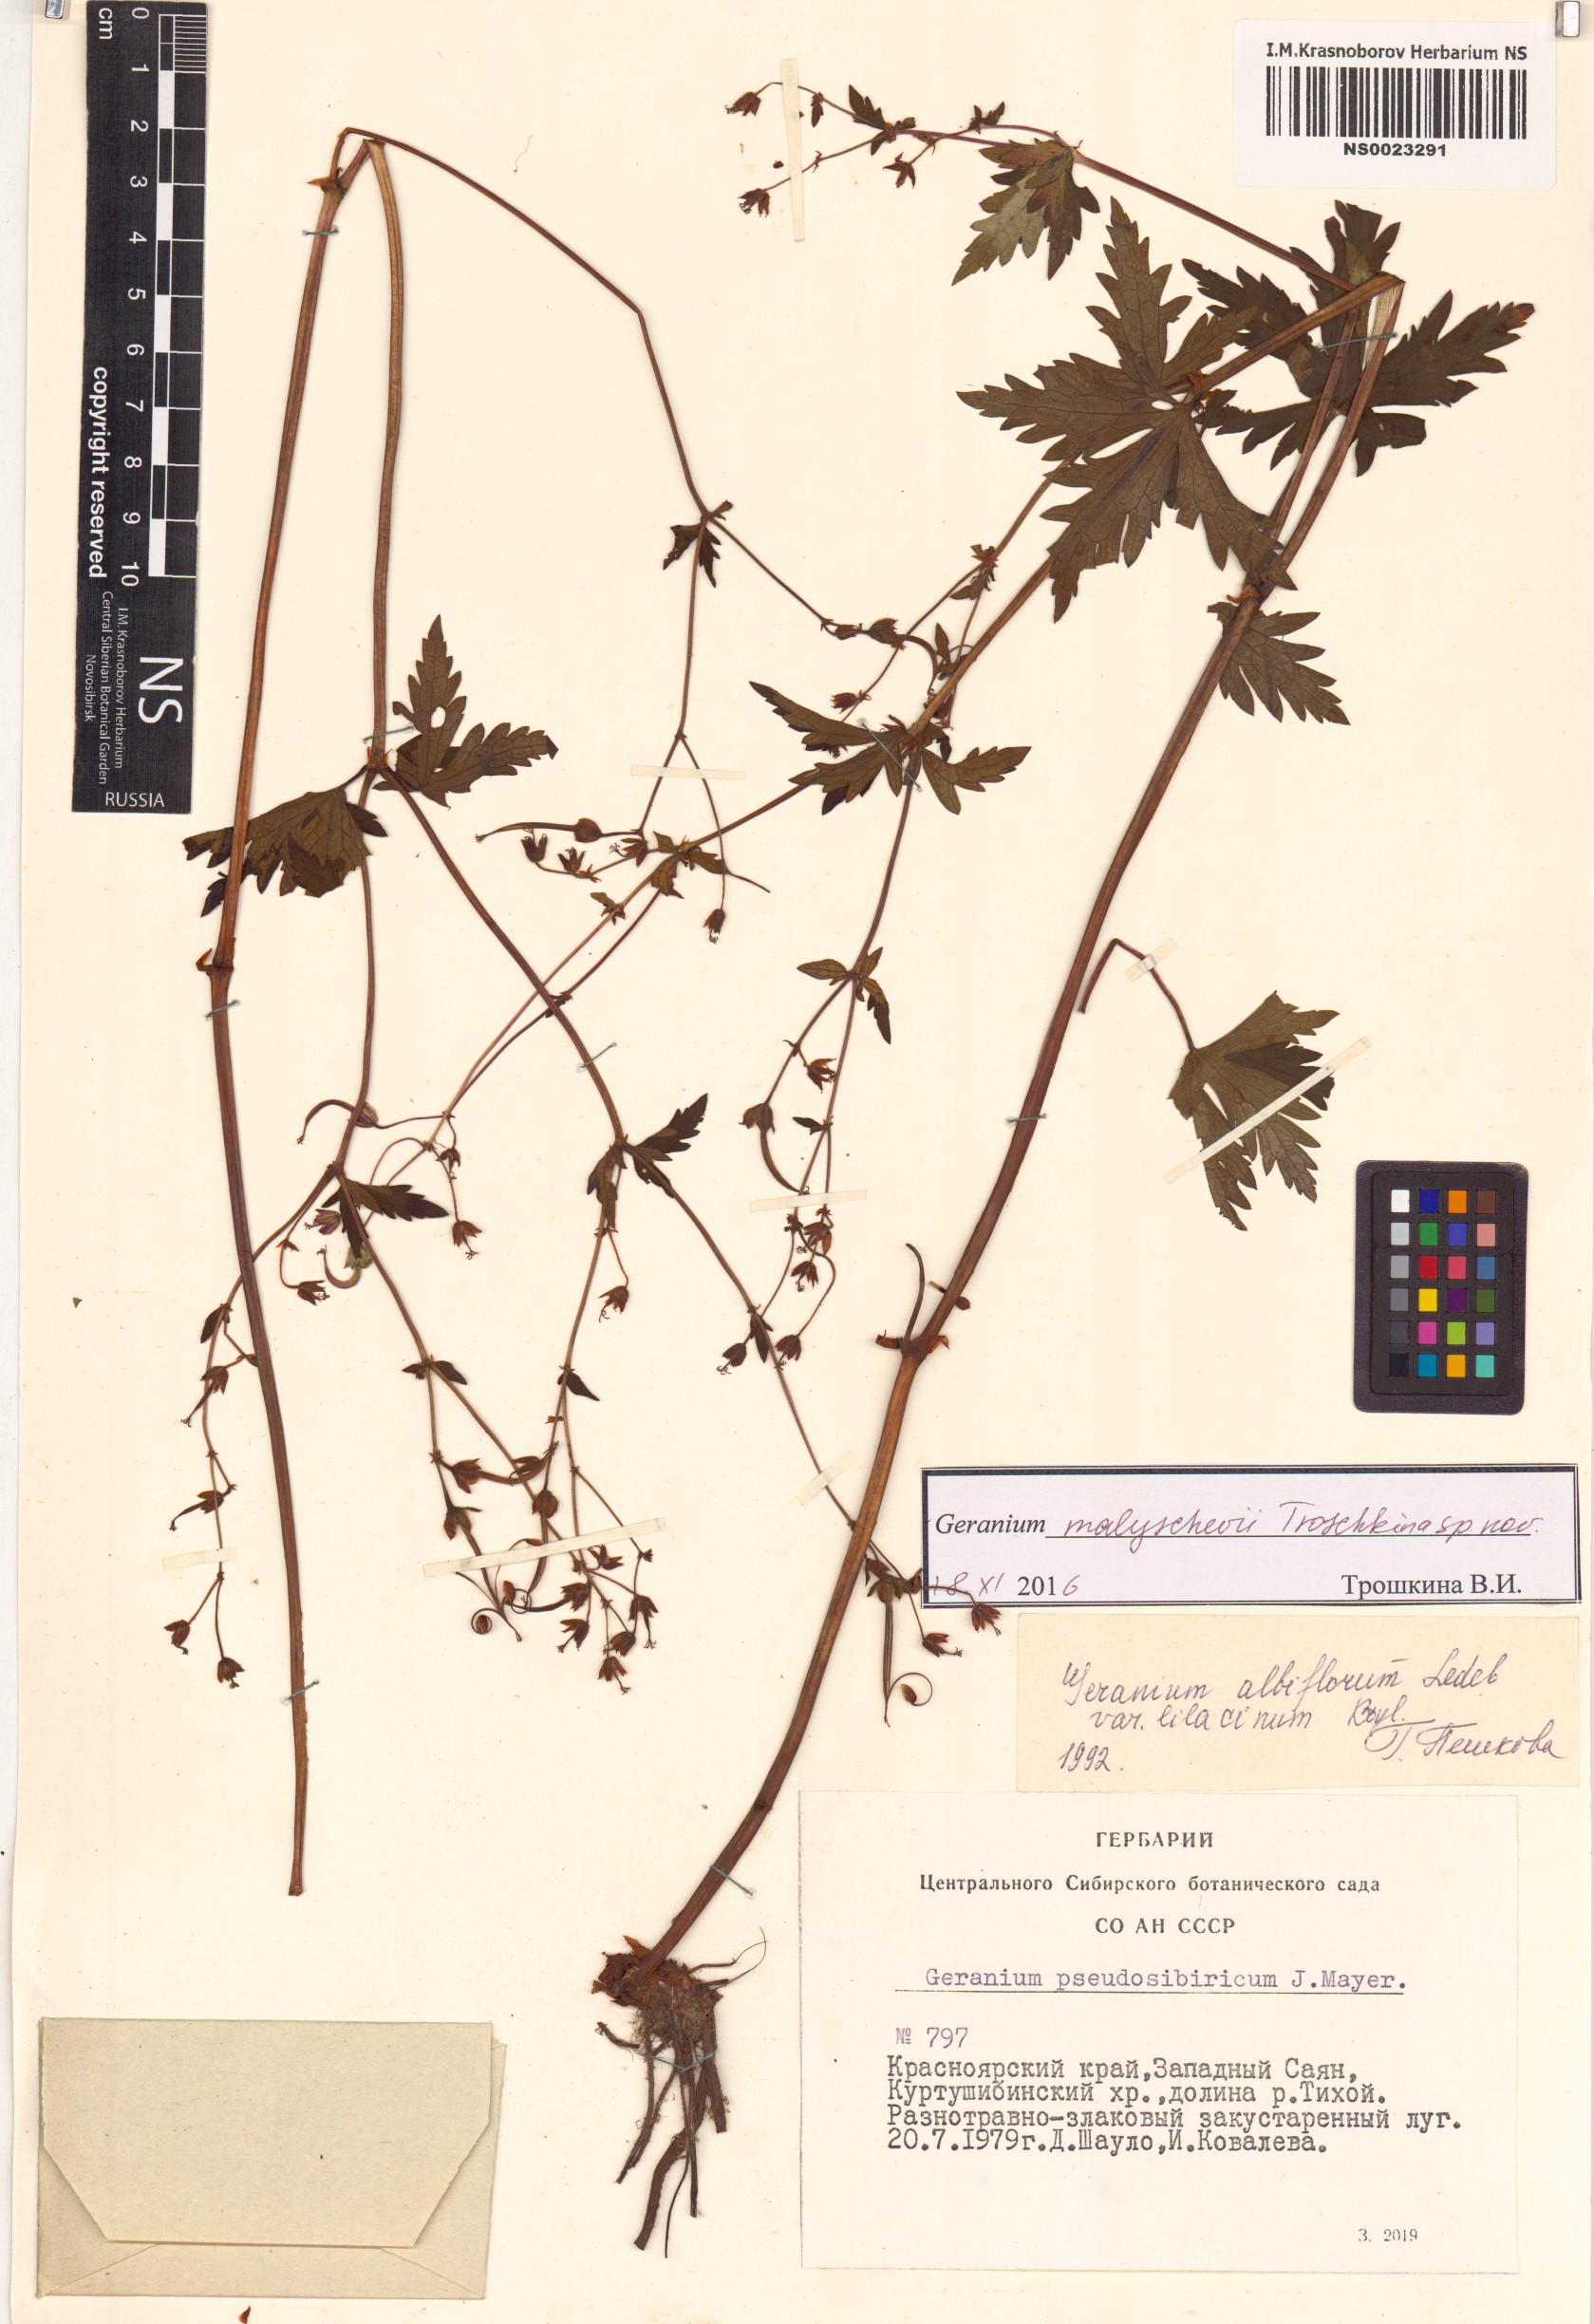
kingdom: Plantae
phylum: Tracheophyta
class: Magnoliopsida
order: Geraniales
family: Geraniaceae
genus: Geranium
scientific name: Geranium malyschevii
